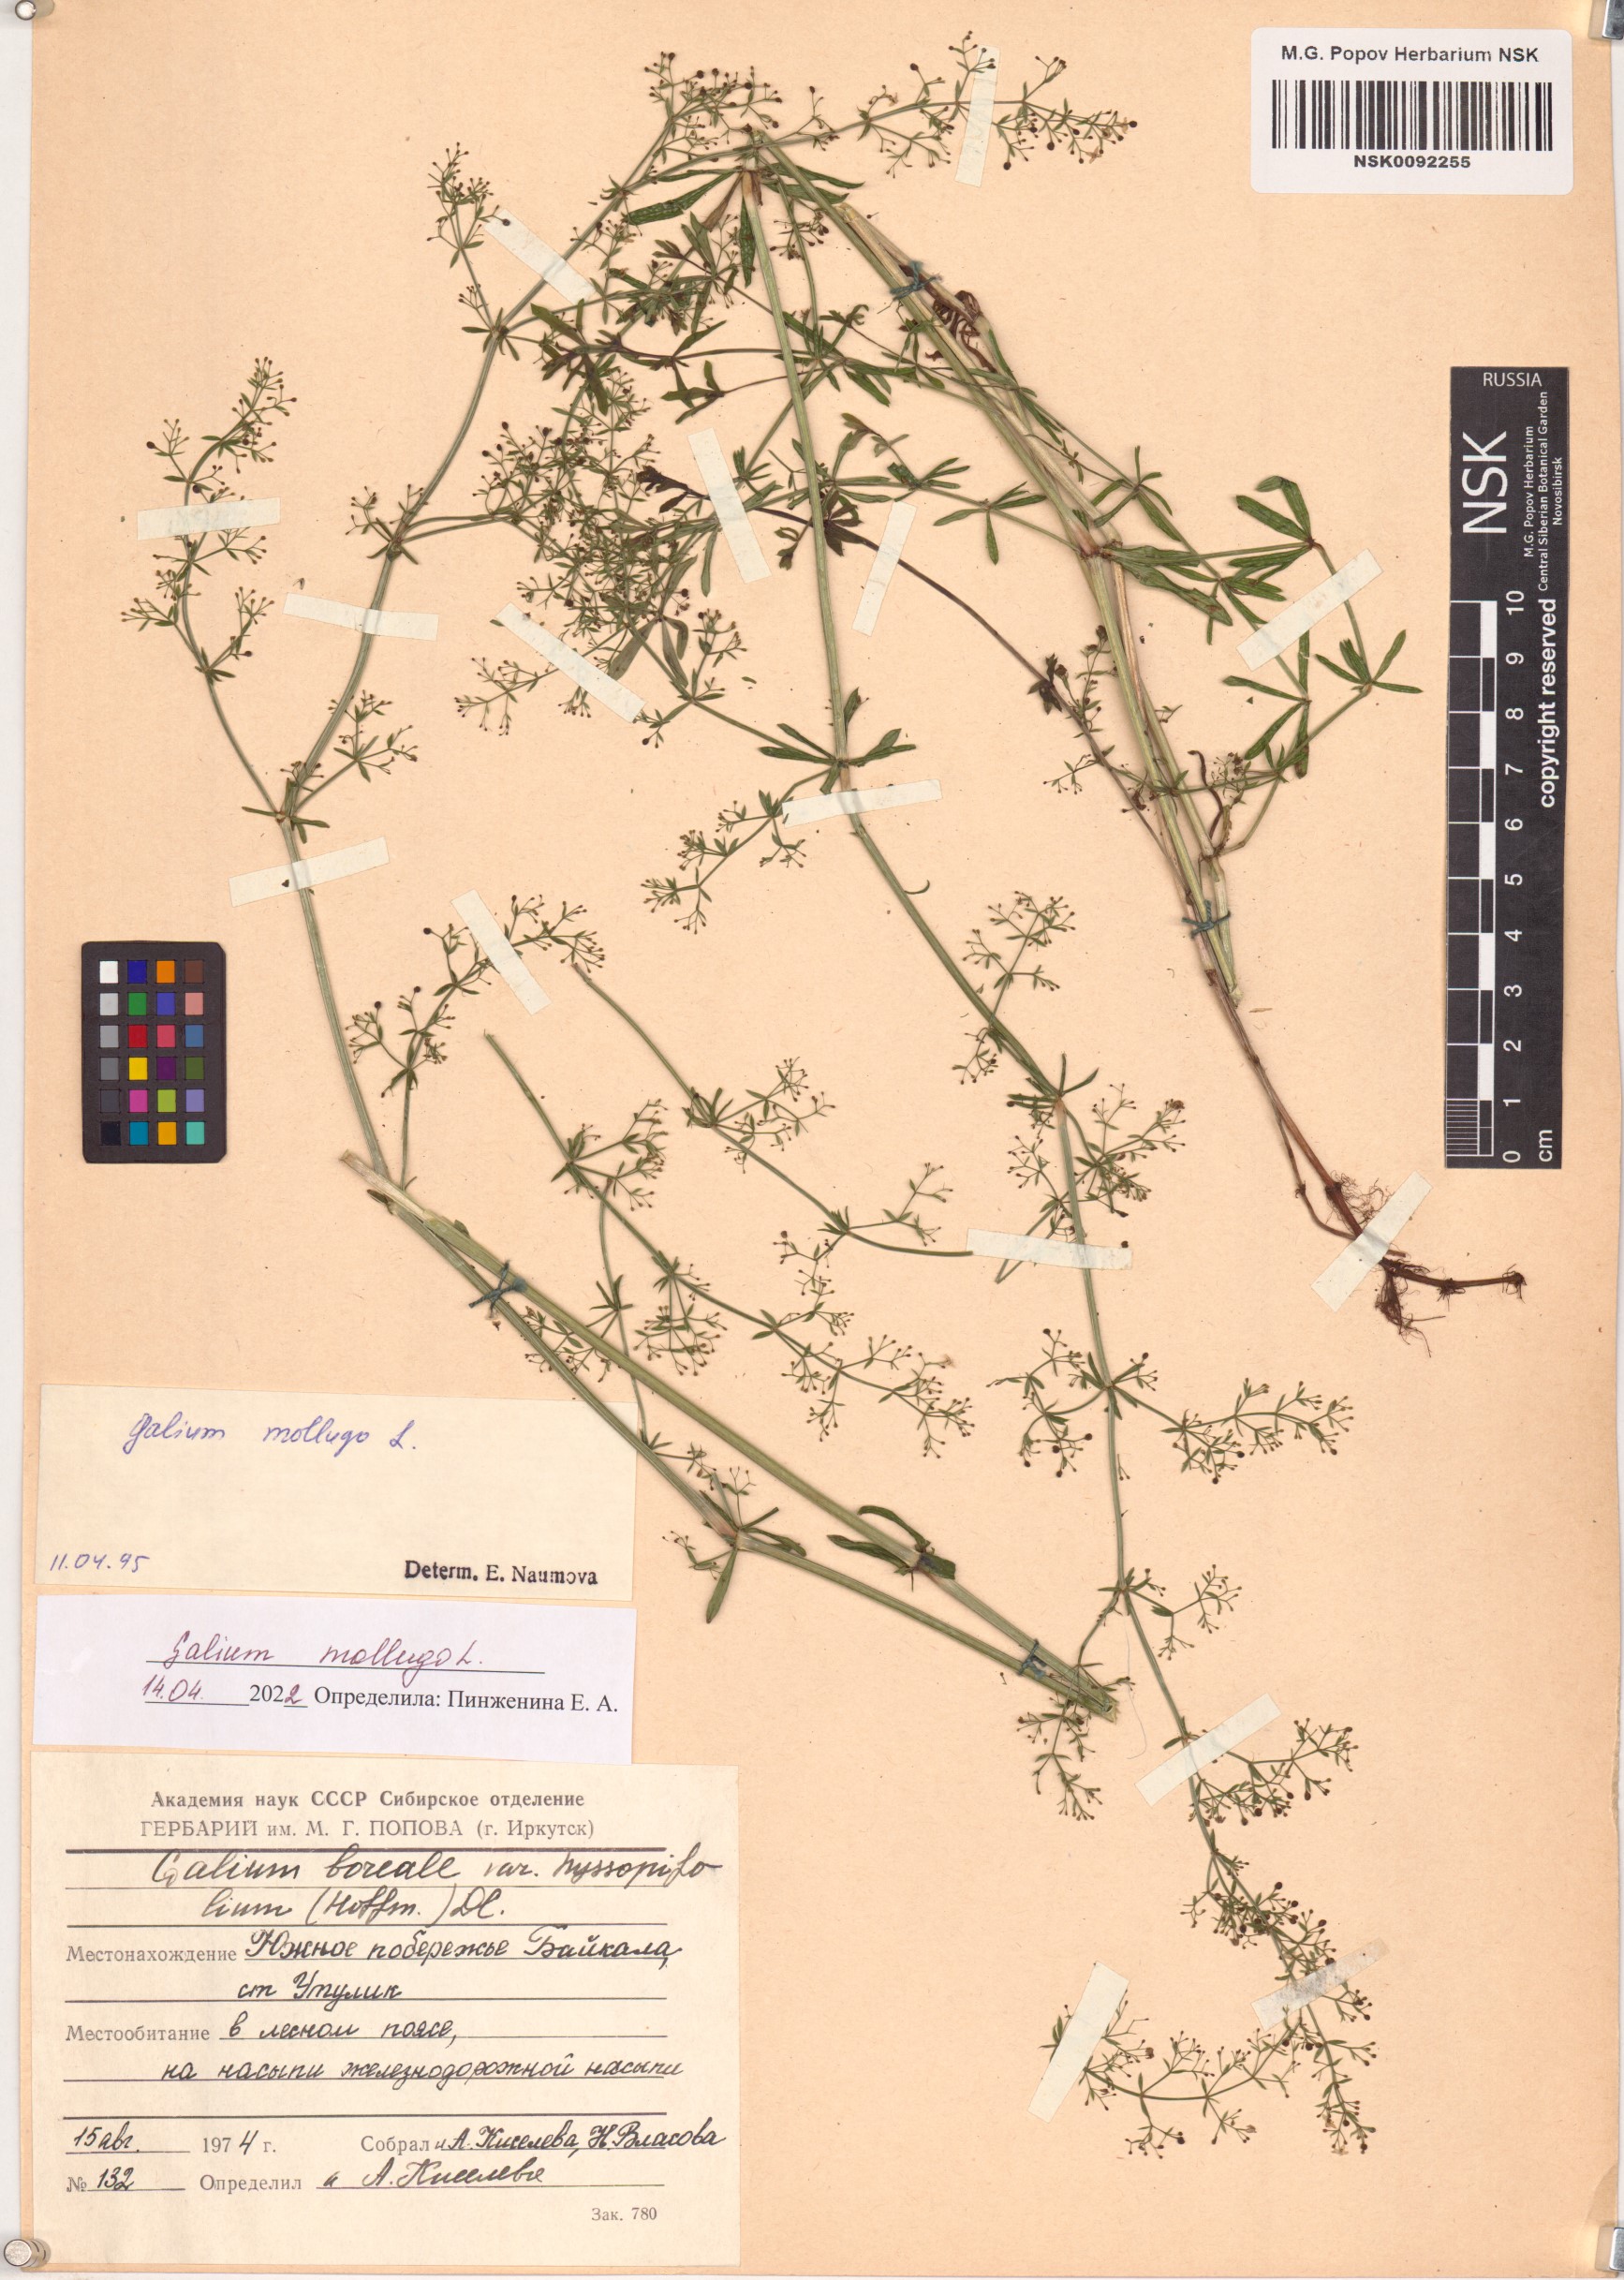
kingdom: Plantae
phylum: Tracheophyta
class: Magnoliopsida
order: Gentianales
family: Rubiaceae
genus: Galium
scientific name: Galium mollugo
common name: Hedge bedstraw
